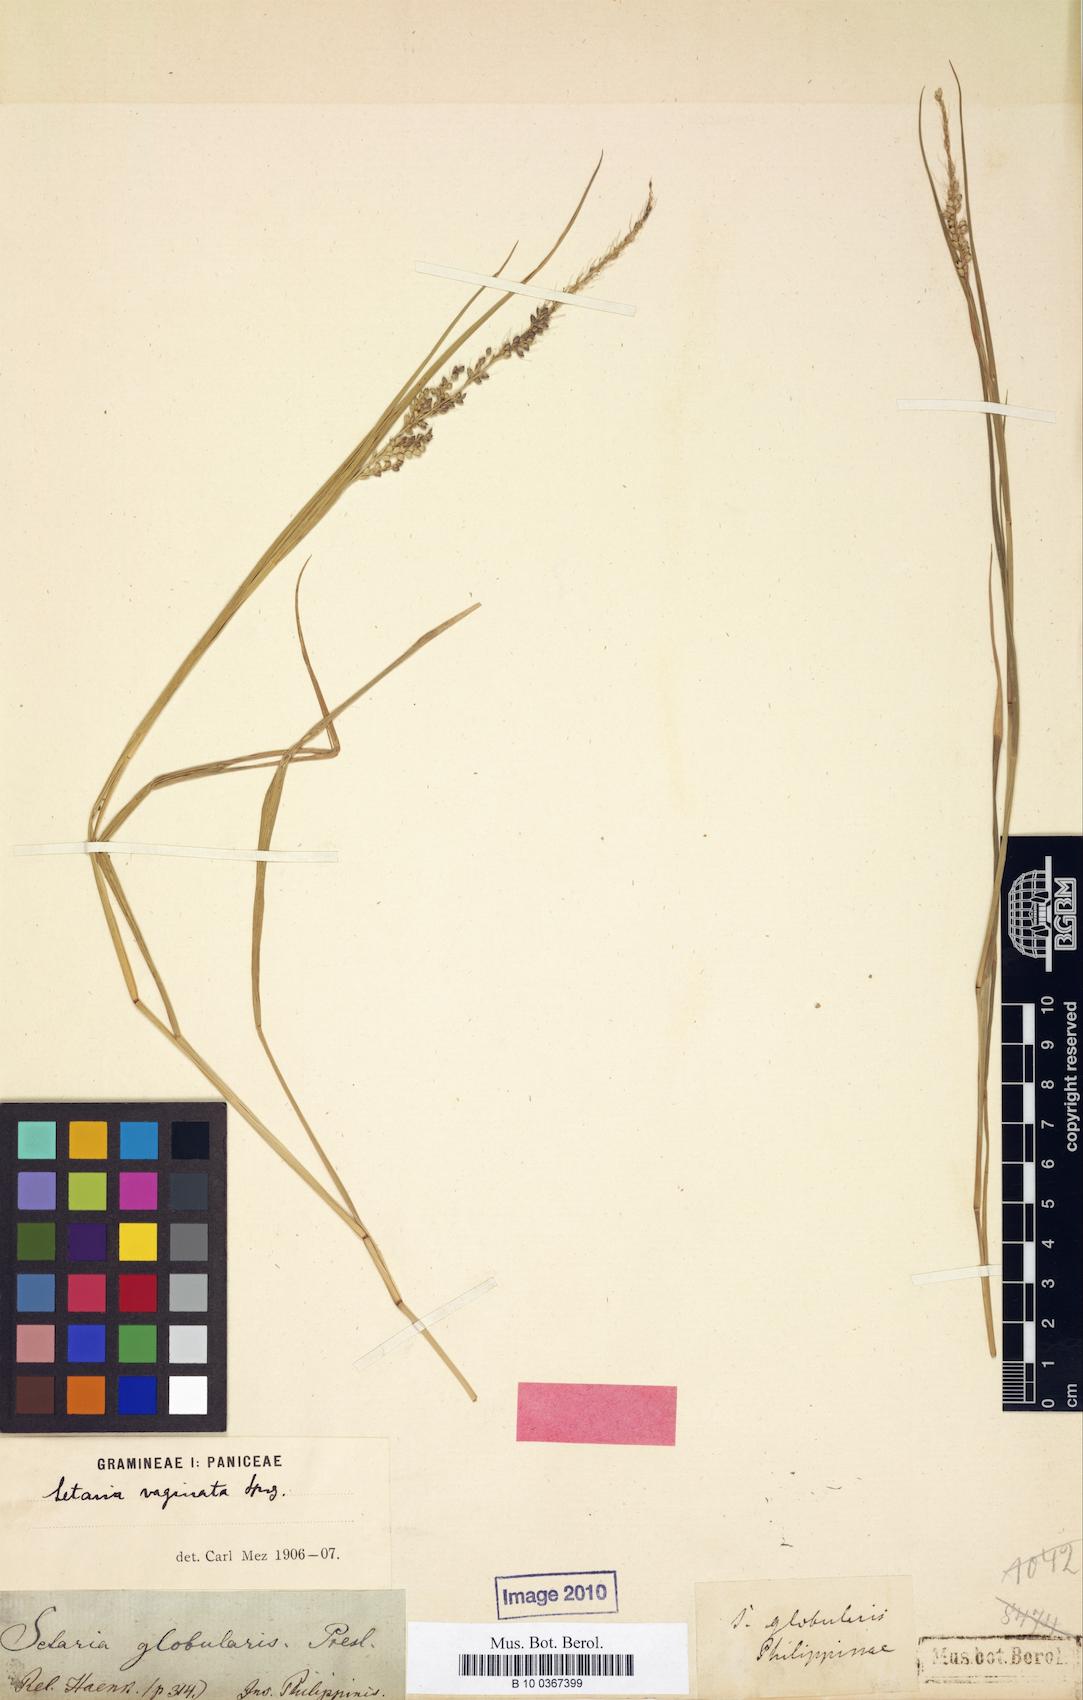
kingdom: Plantae
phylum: Tracheophyta
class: Liliopsida
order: Poales
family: Poaceae
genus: Setaria
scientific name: Setaria italica
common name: Foxtail bristle-grass
